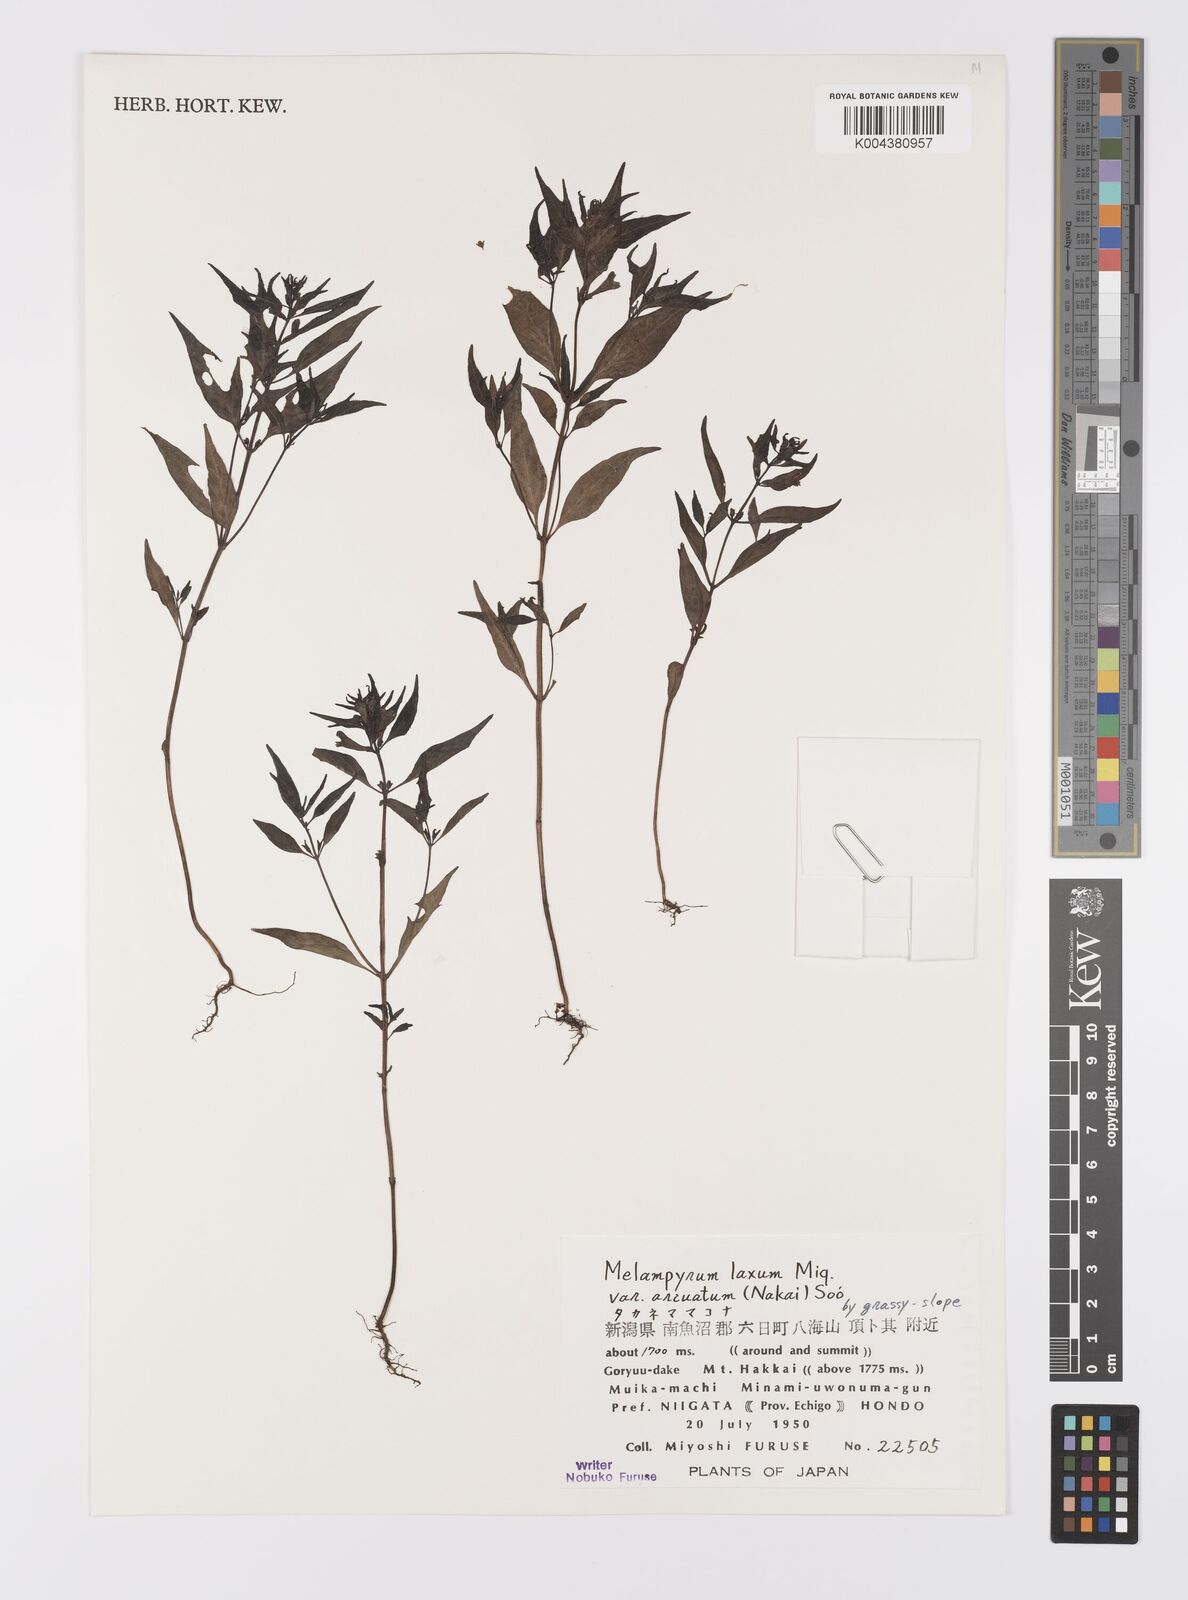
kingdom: Plantae
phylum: Tracheophyta
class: Magnoliopsida
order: Lamiales
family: Orobanchaceae
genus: Melampyrum
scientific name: Melampyrum laxum
